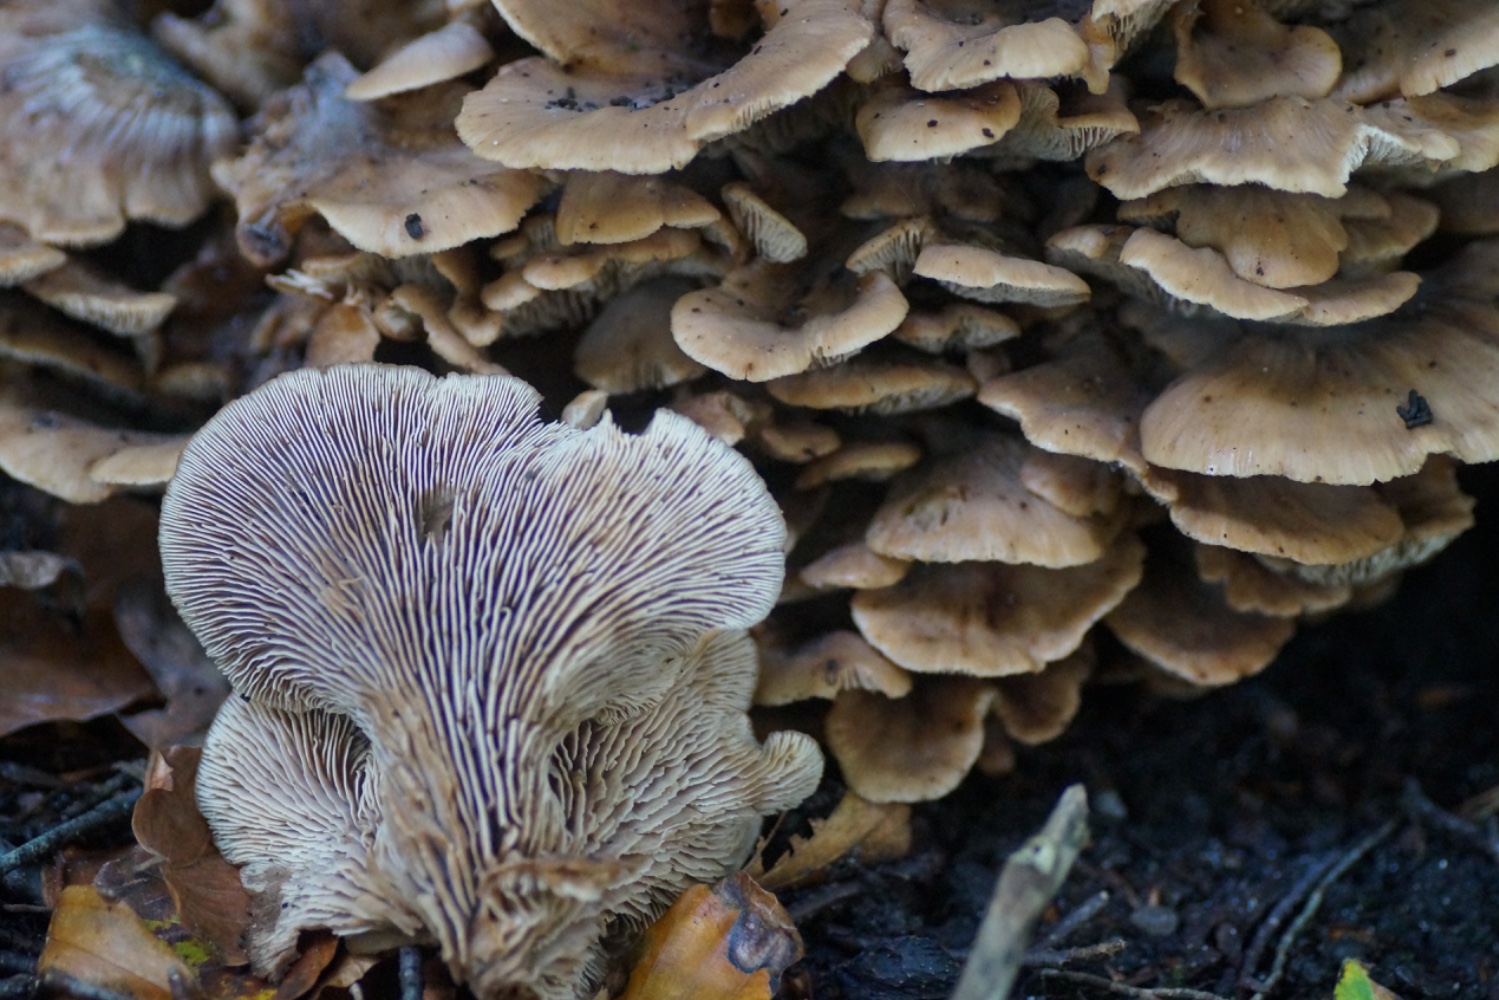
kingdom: Fungi
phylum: Basidiomycota
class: Agaricomycetes
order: Russulales
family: Auriscalpiaceae
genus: Lentinellus
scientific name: Lentinellus cochleatus
